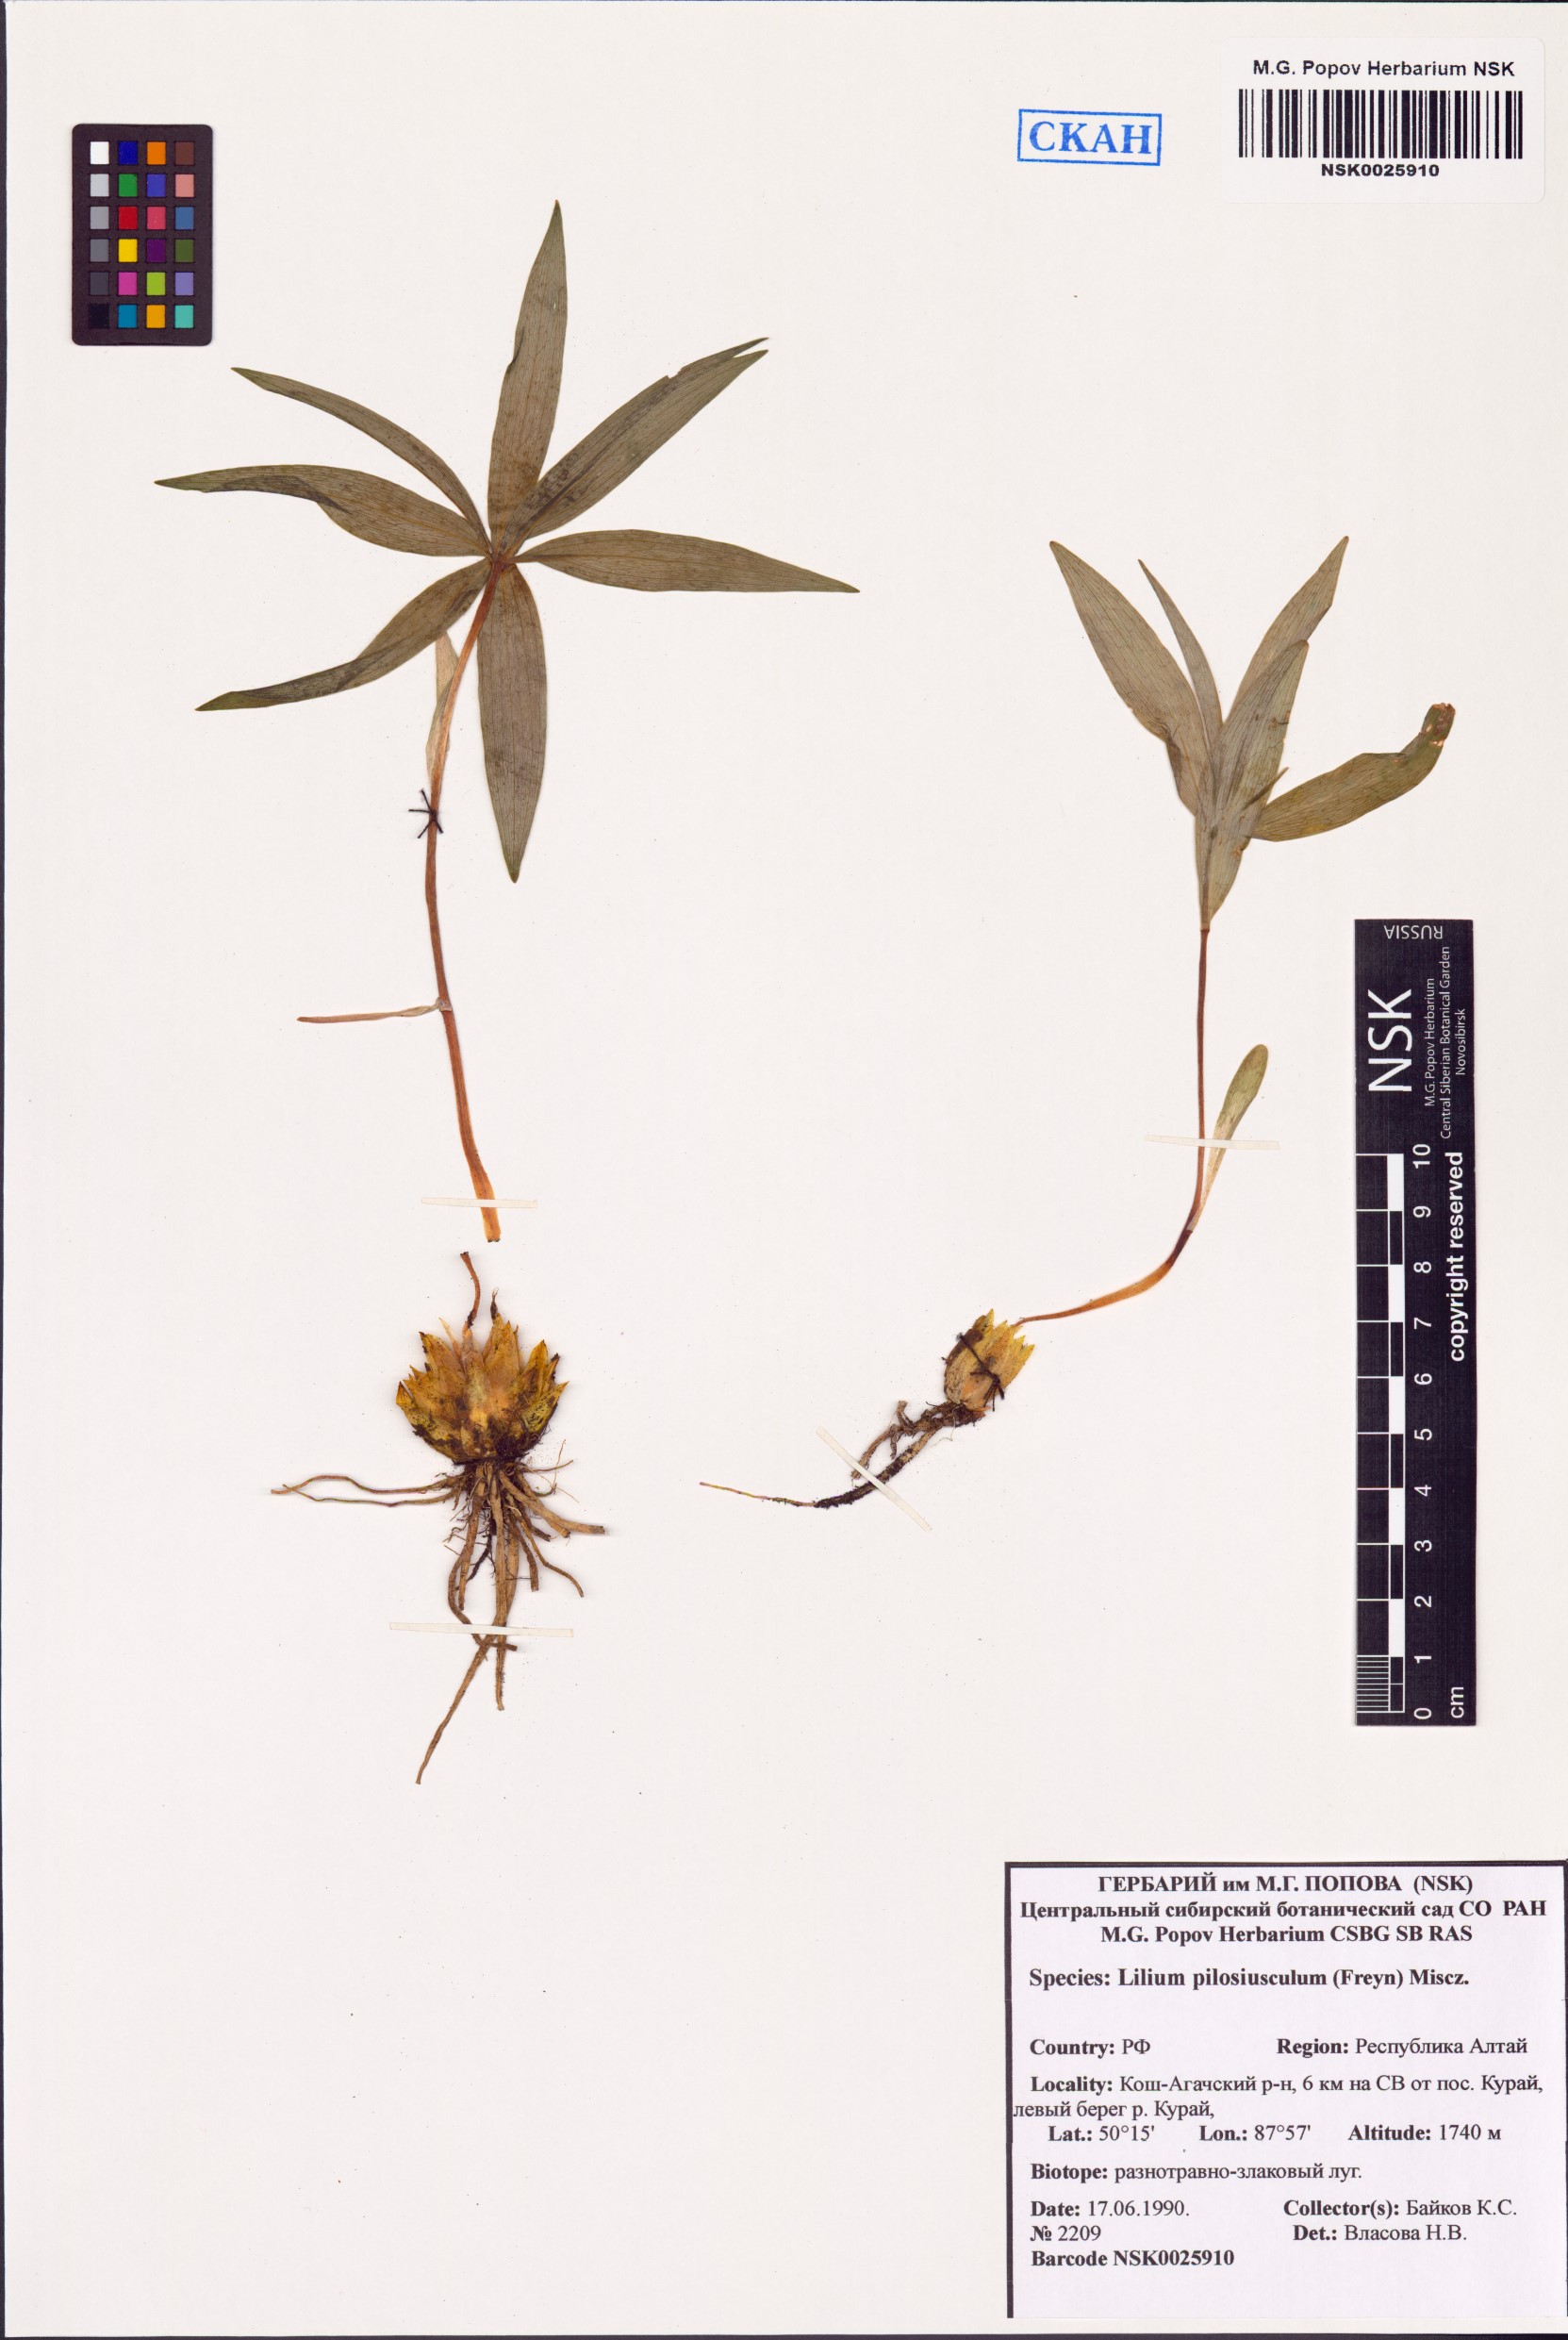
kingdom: Plantae
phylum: Tracheophyta
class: Liliopsida
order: Liliales
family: Liliaceae
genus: Lilium
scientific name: Lilium martagon
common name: Martagon lily
